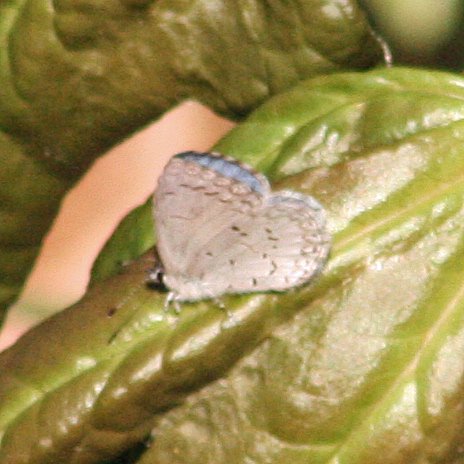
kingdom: Animalia
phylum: Arthropoda
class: Insecta
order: Lepidoptera
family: Lycaenidae
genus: Celastrina
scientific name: Celastrina
